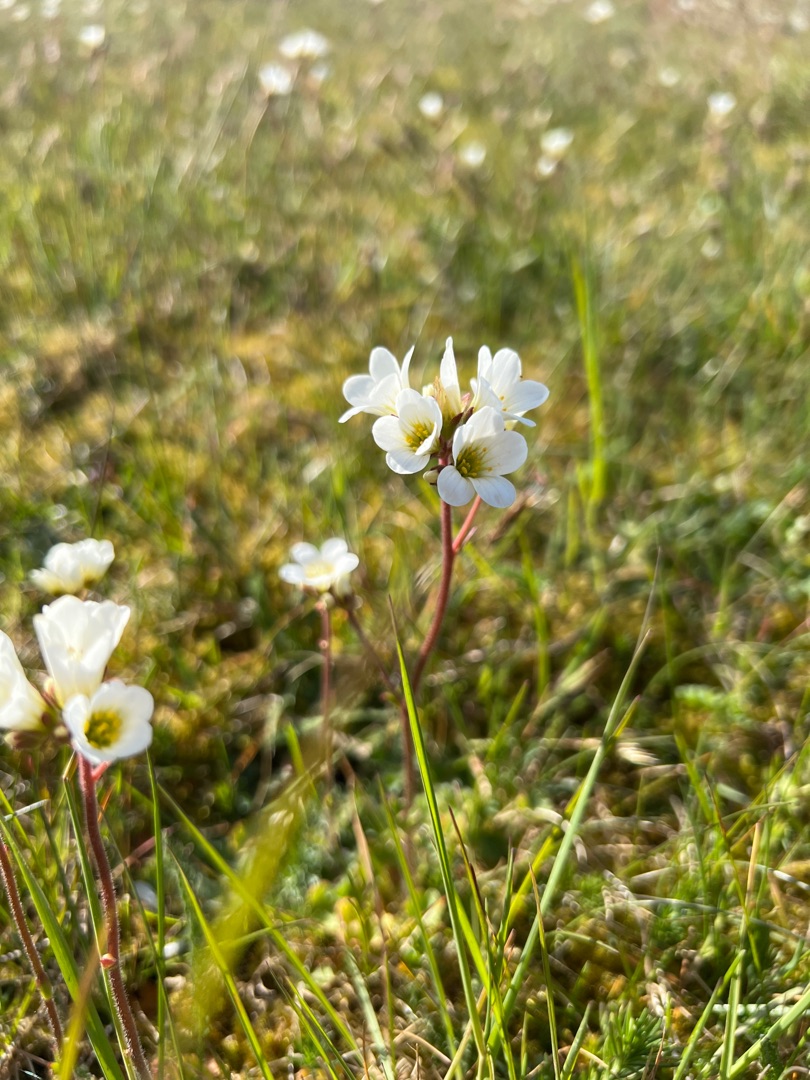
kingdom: Plantae
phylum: Tracheophyta
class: Magnoliopsida
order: Saxifragales
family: Saxifragaceae
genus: Saxifraga
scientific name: Saxifraga granulata
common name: Kornet stenbræk
